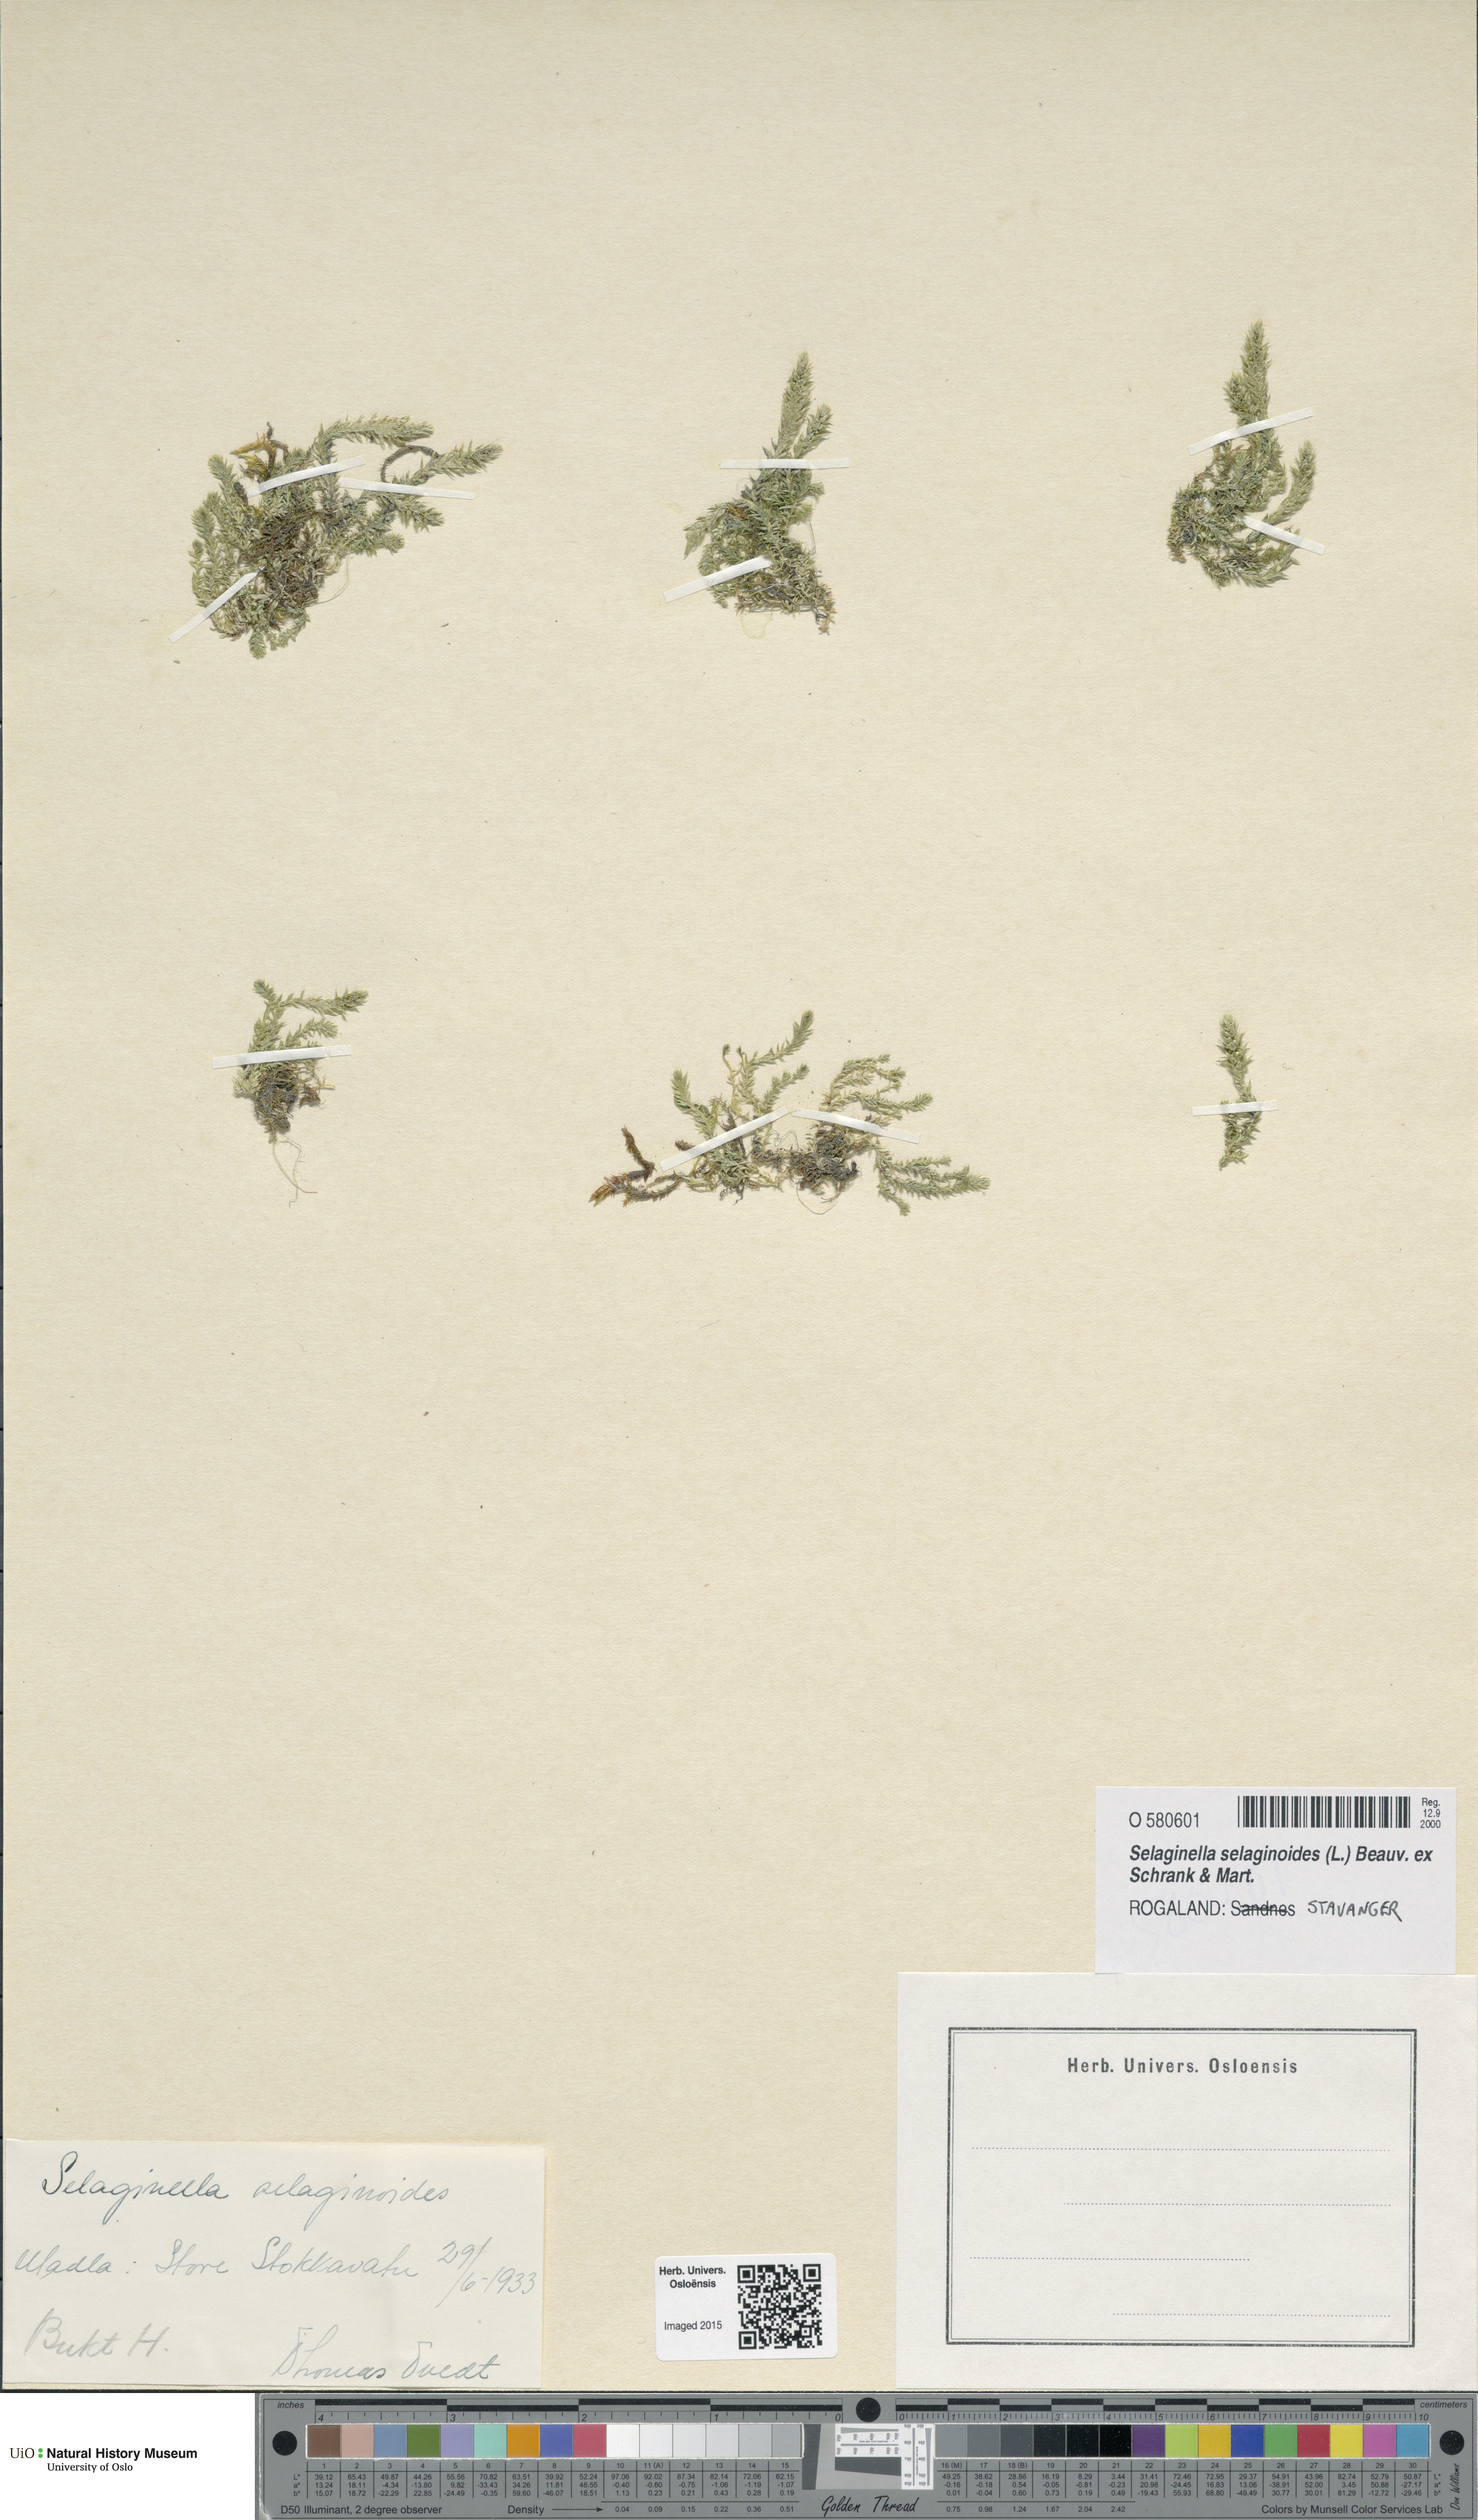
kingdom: Plantae
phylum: Tracheophyta
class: Lycopodiopsida
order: Selaginellales
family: Selaginellaceae
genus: Selaginella
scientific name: Selaginella selaginoides
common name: Prickly mountain-moss
